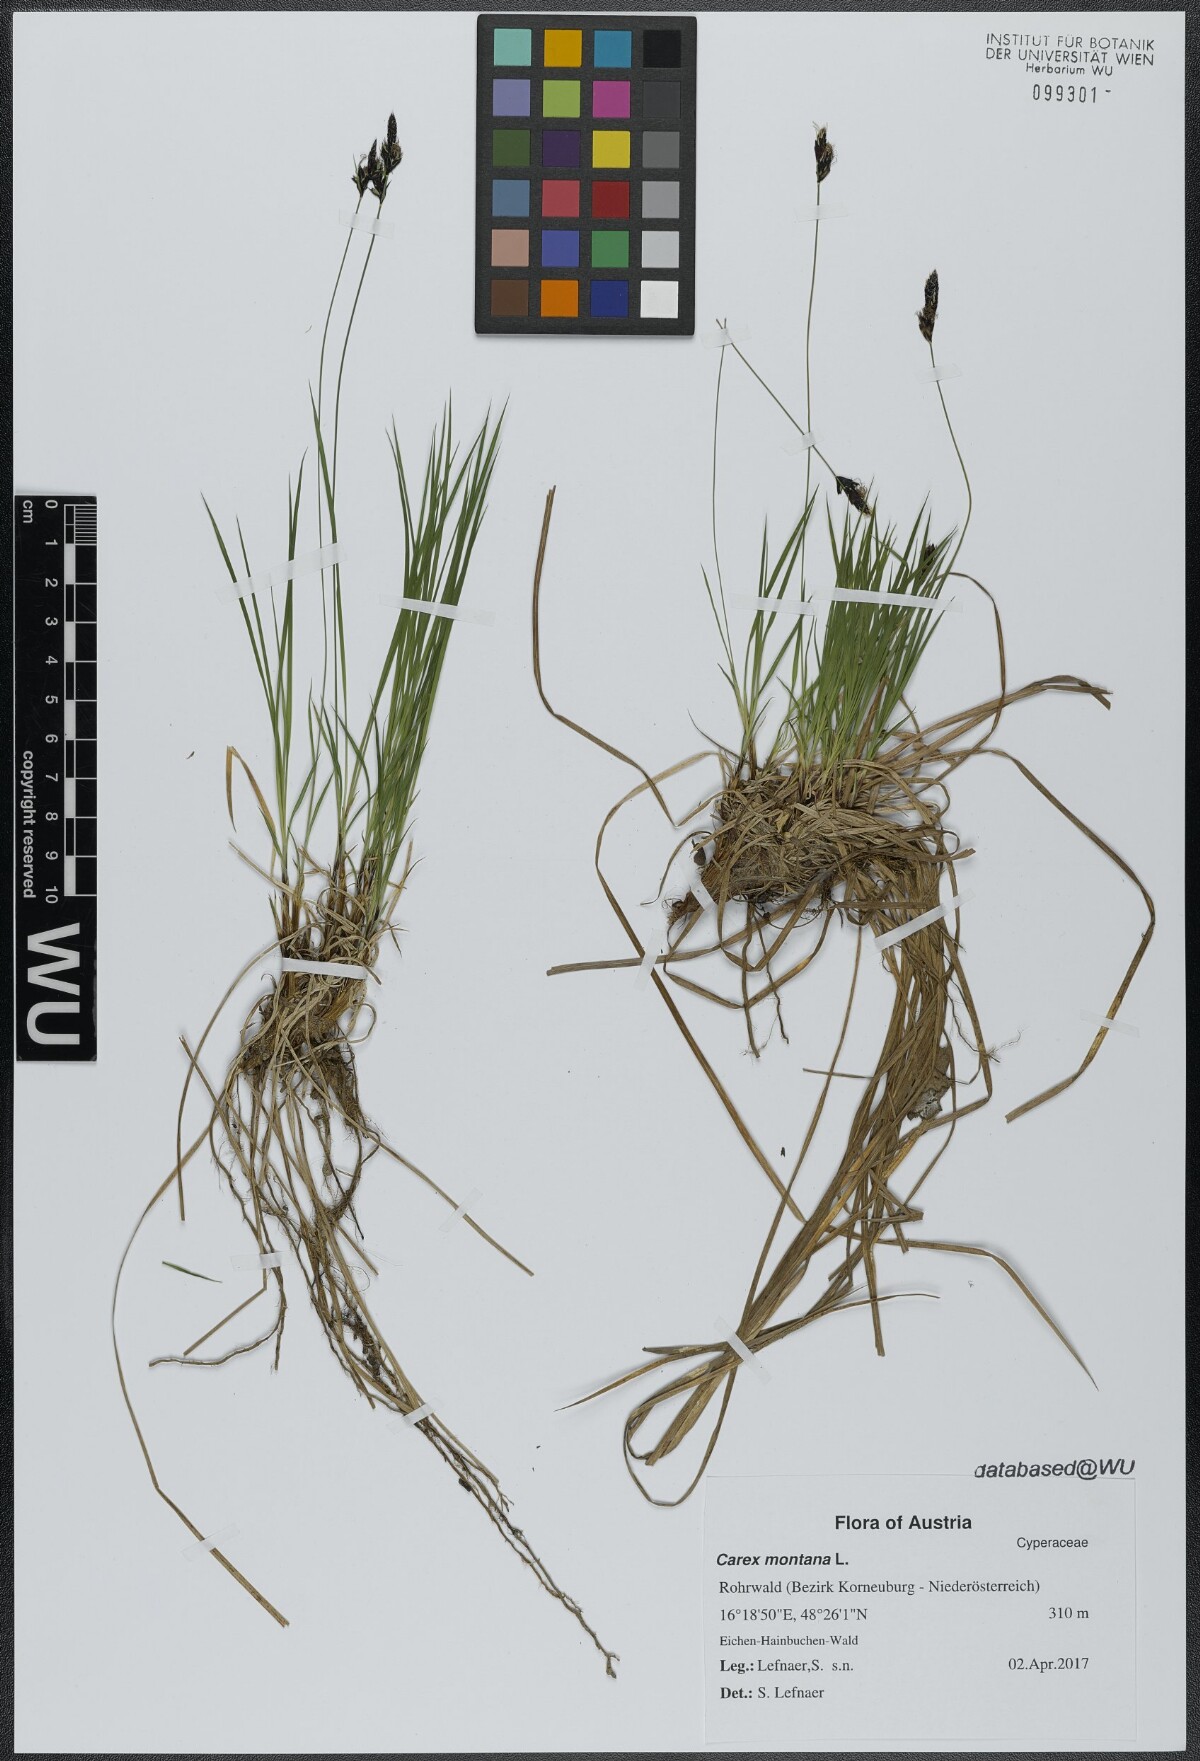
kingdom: Plantae
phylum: Tracheophyta
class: Liliopsida
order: Poales
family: Cyperaceae
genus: Carex
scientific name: Carex montana
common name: Soft-leaved sedge
